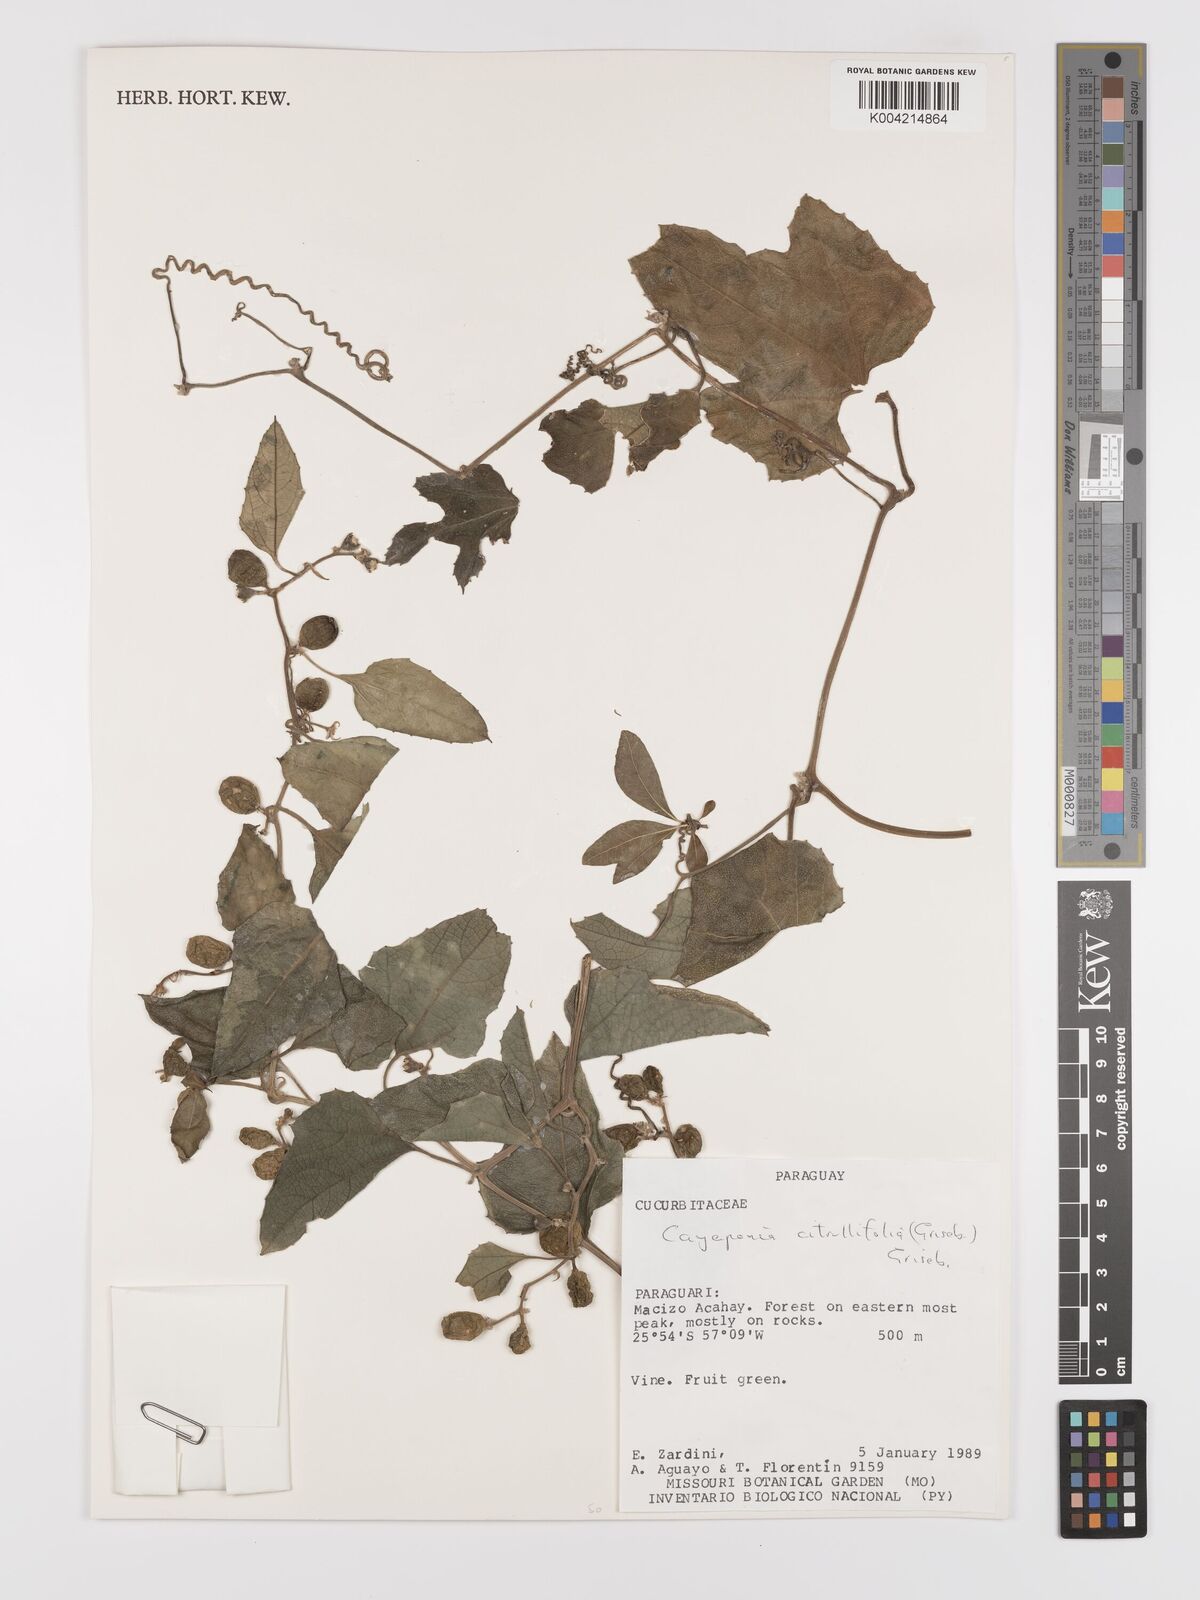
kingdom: Plantae
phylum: Tracheophyta
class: Magnoliopsida
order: Cucurbitales
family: Cucurbitaceae
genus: Cayaponia
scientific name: Cayaponia citrullifolia
